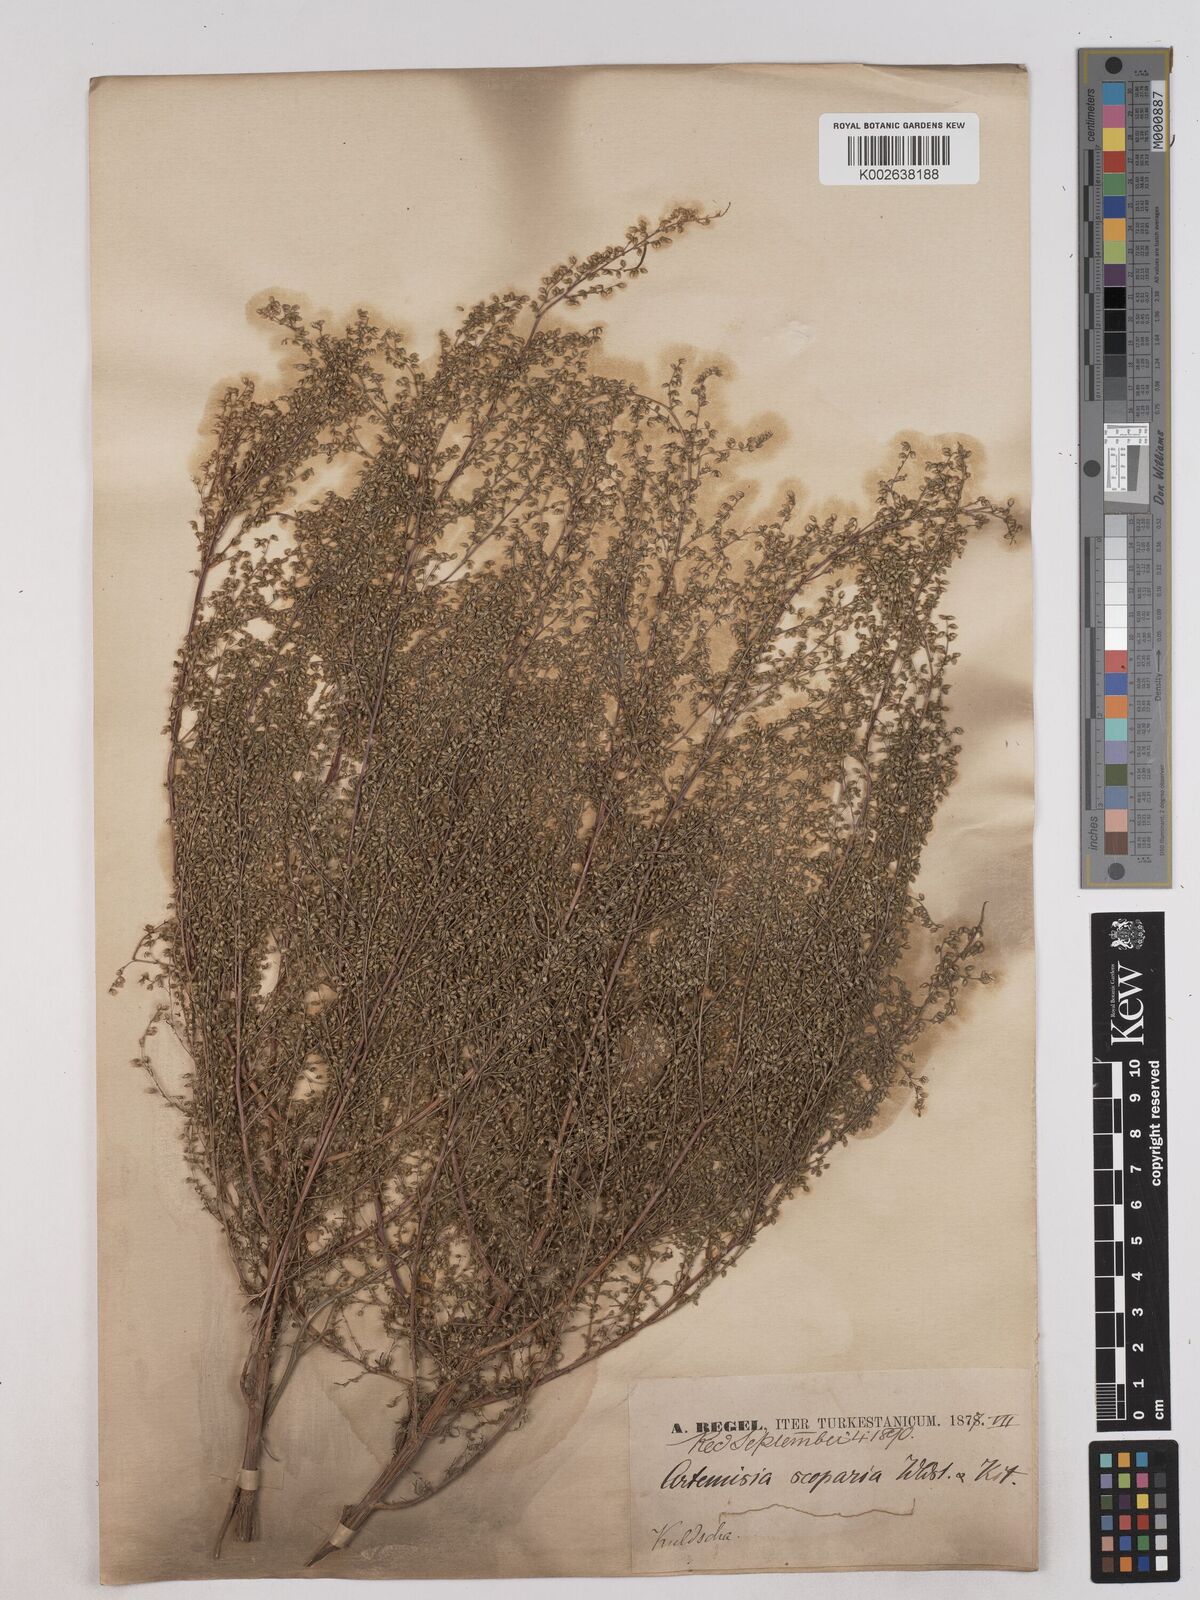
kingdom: Plantae
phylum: Tracheophyta
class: Magnoliopsida
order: Asterales
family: Asteraceae
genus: Artemisia
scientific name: Artemisia
